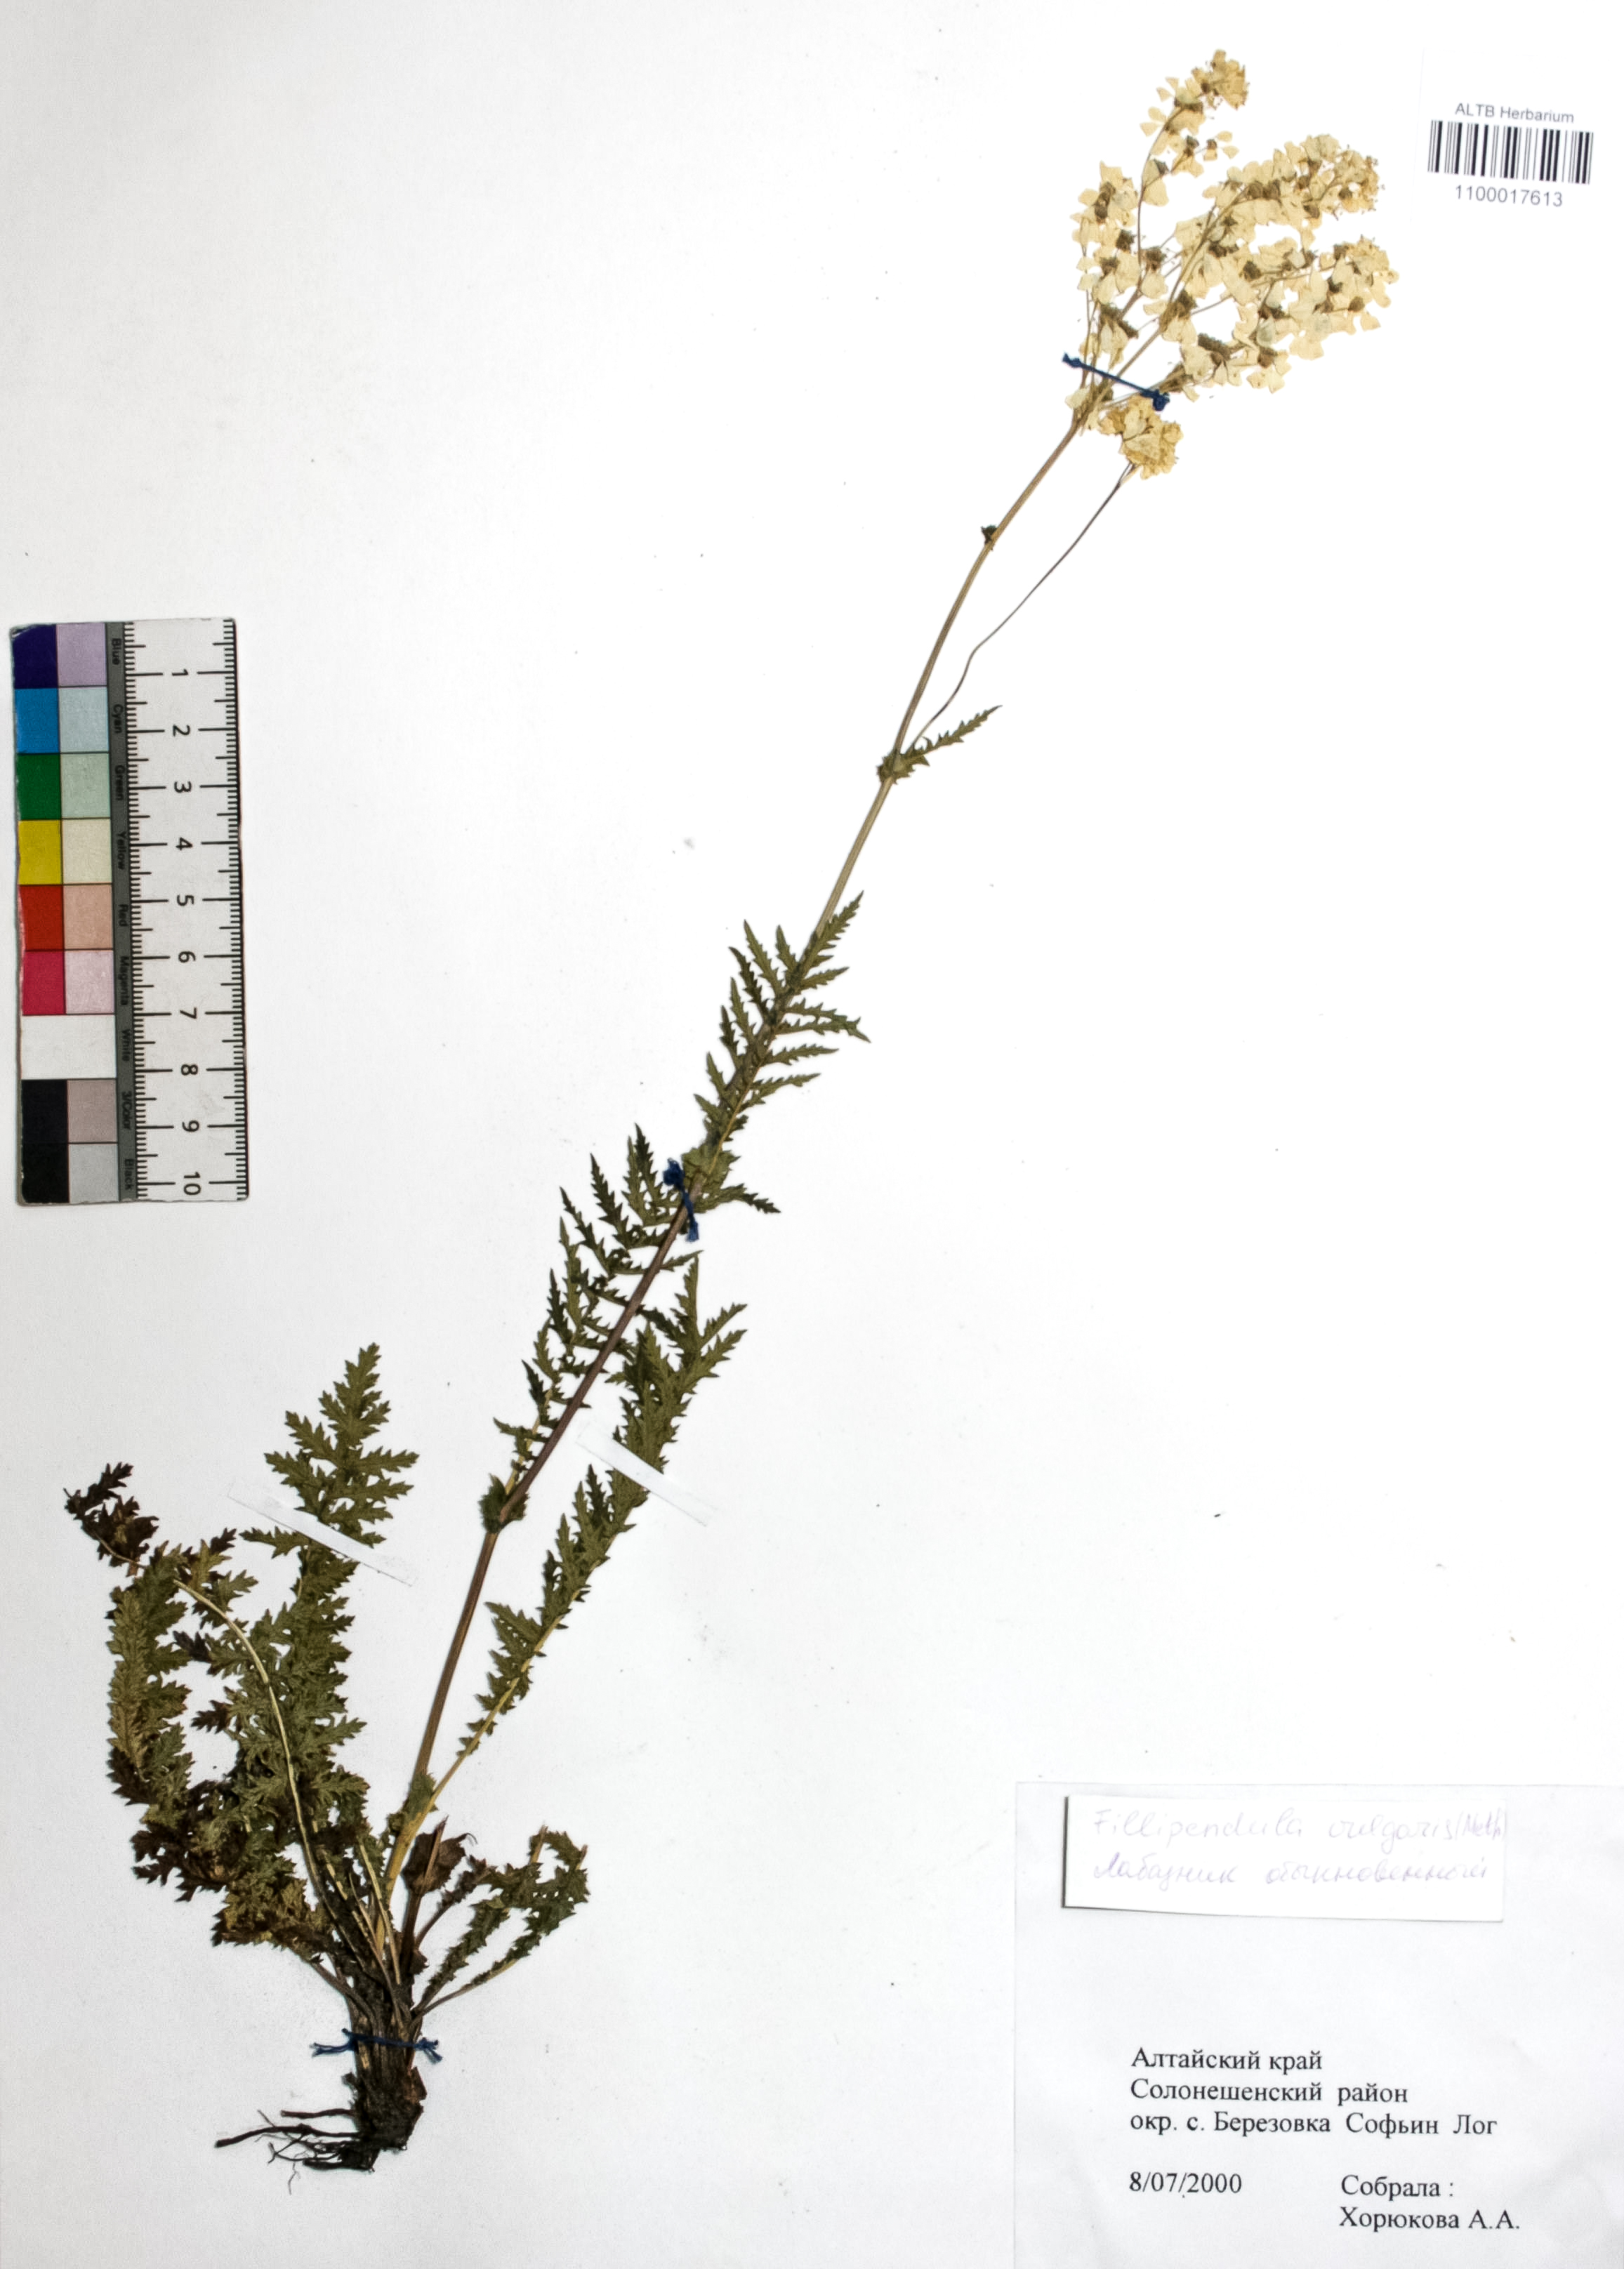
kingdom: Plantae
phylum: Tracheophyta
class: Magnoliopsida
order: Rosales
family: Rosaceae
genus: Filipendula
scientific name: Filipendula vulgaris
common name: Dropwort
